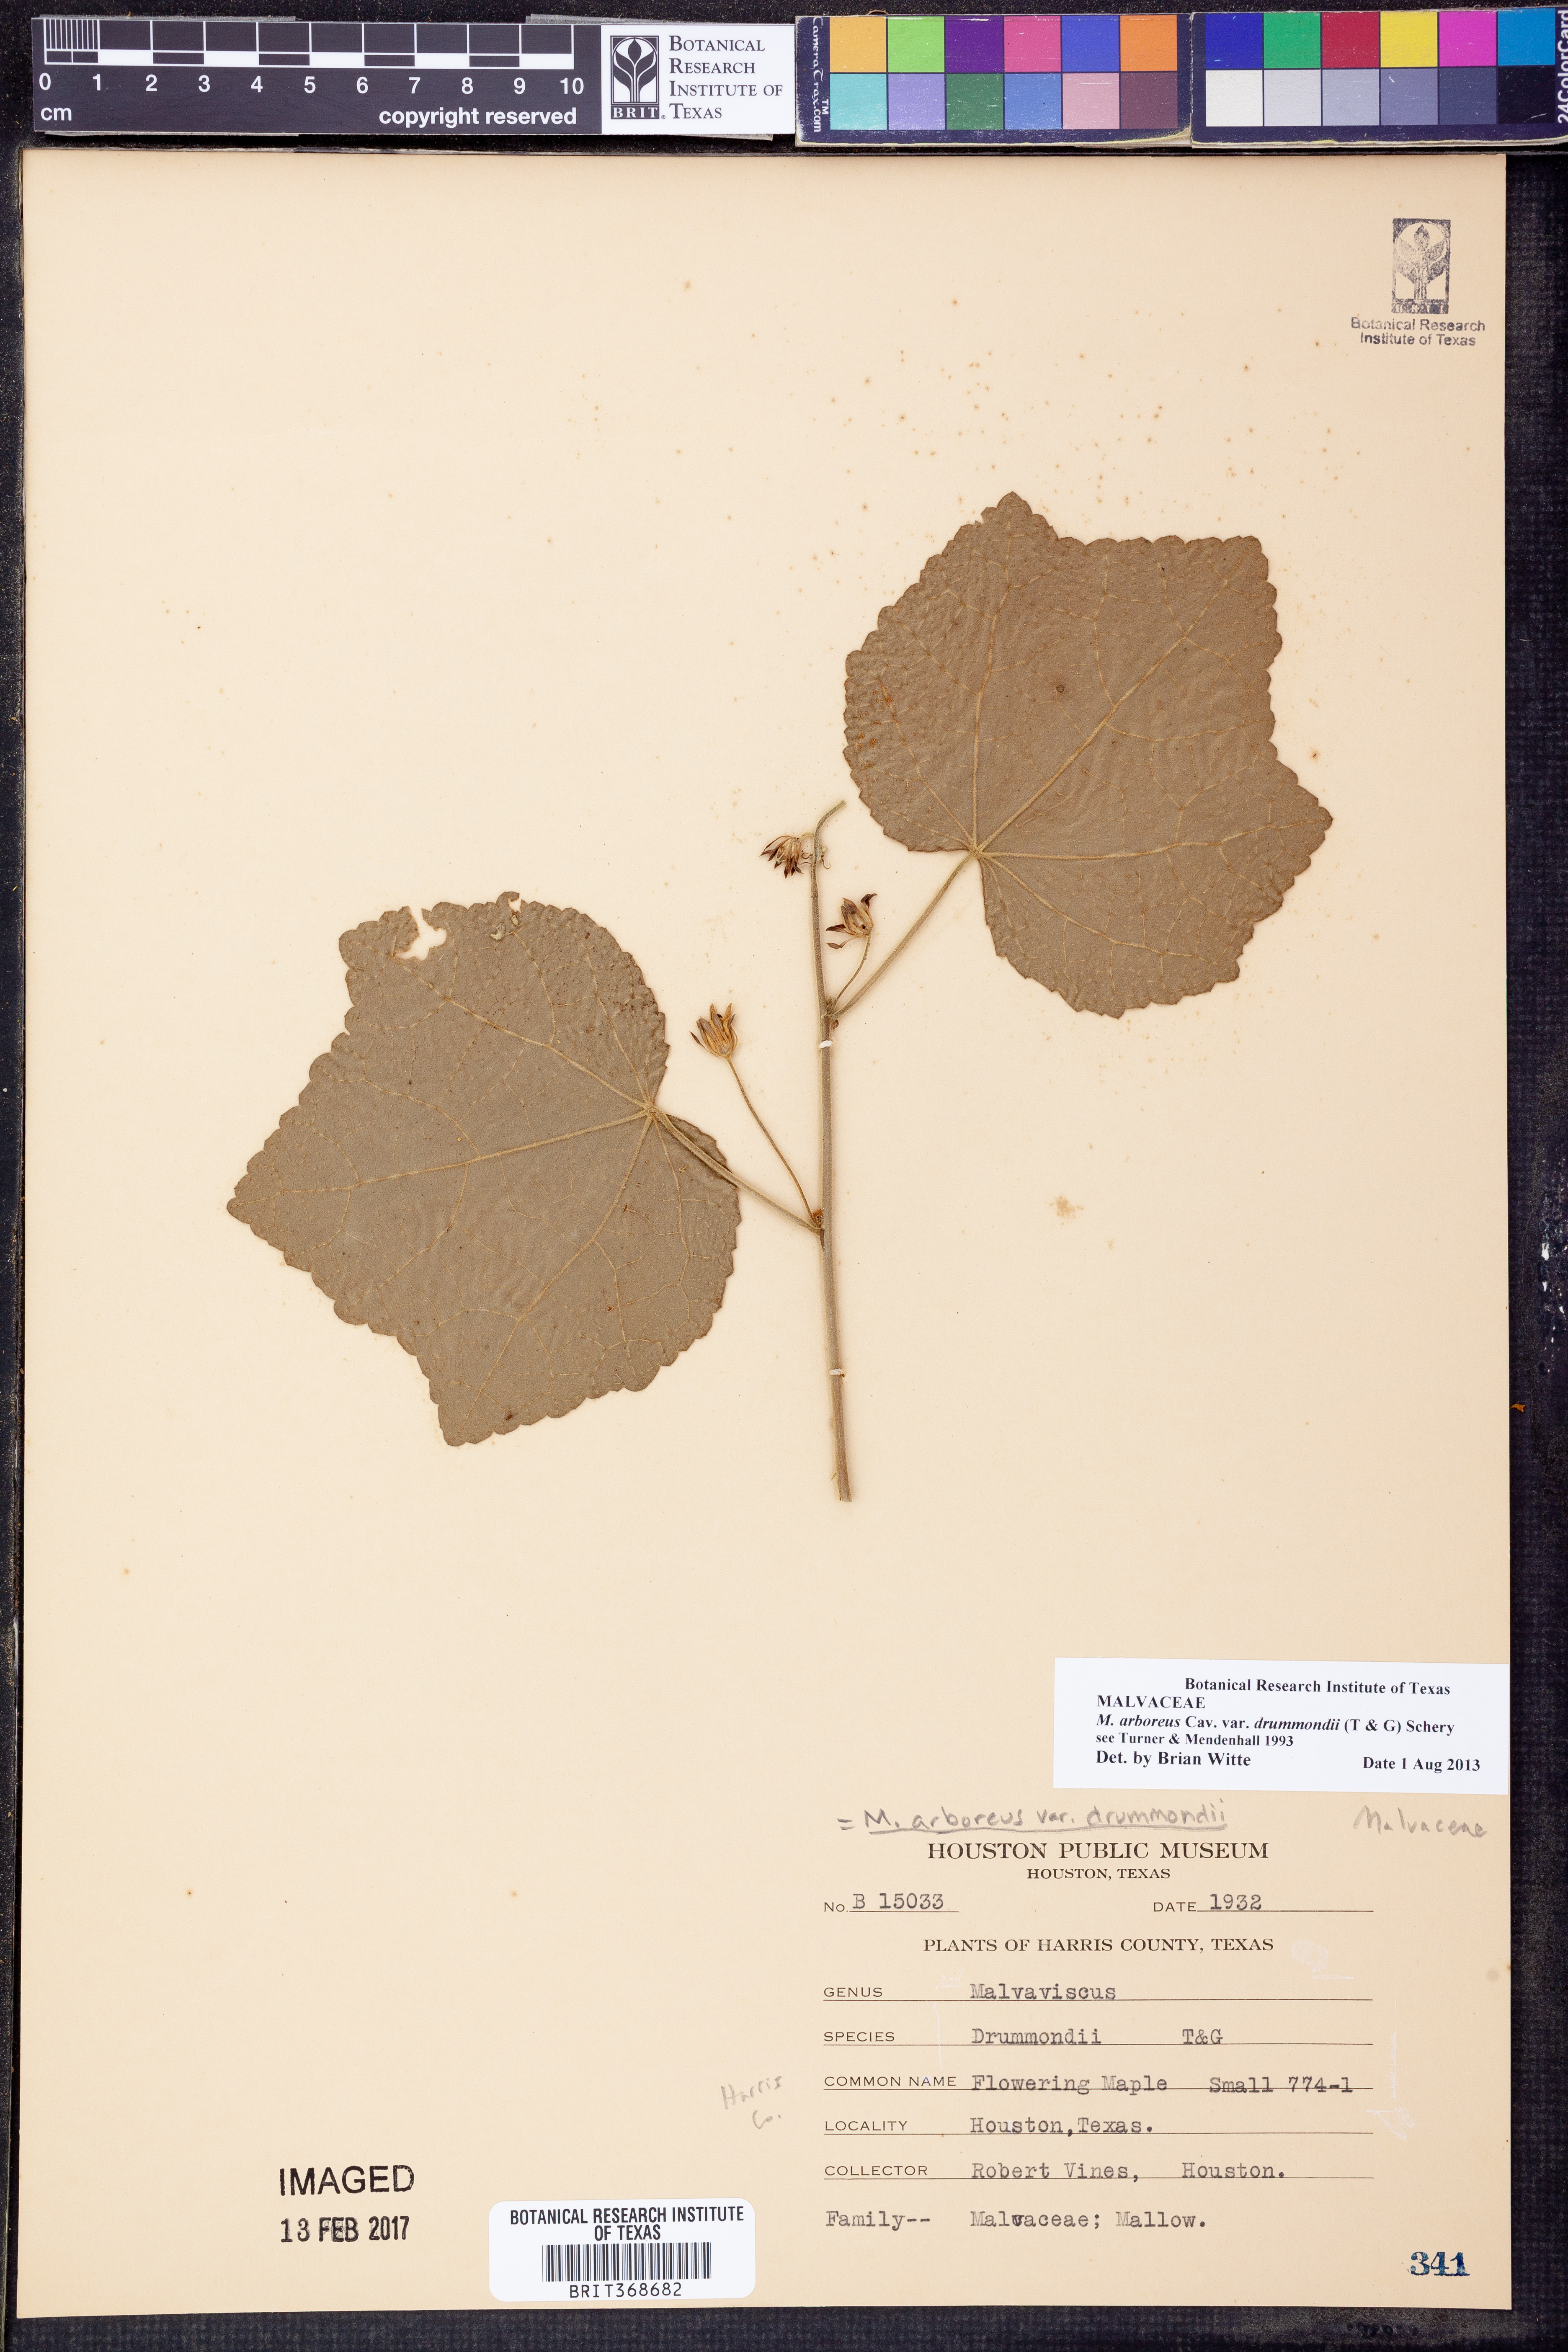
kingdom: Plantae
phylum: Tracheophyta
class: Magnoliopsida
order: Malvales
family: Malvaceae
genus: Malvaviscus
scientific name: Malvaviscus arboreus
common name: Wax mallow
